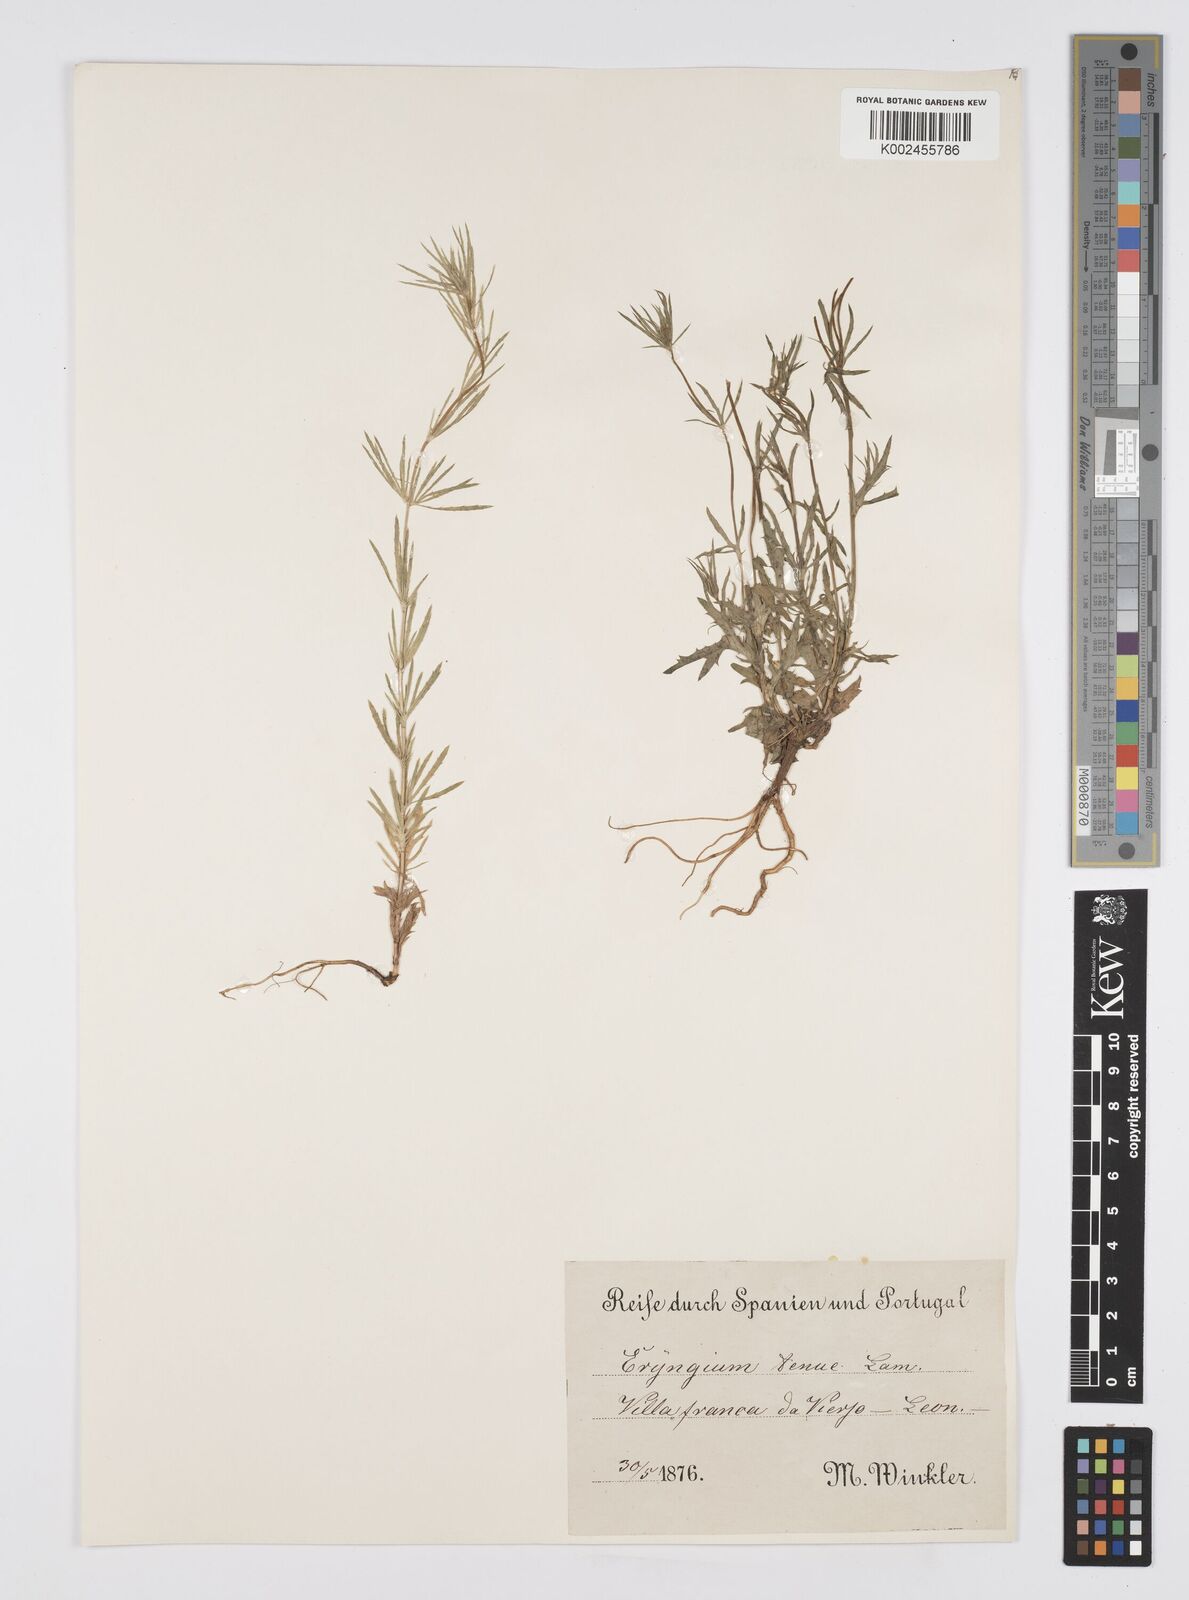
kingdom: Plantae
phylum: Tracheophyta
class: Magnoliopsida
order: Apiales
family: Apiaceae
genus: Eryngium
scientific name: Eryngium
